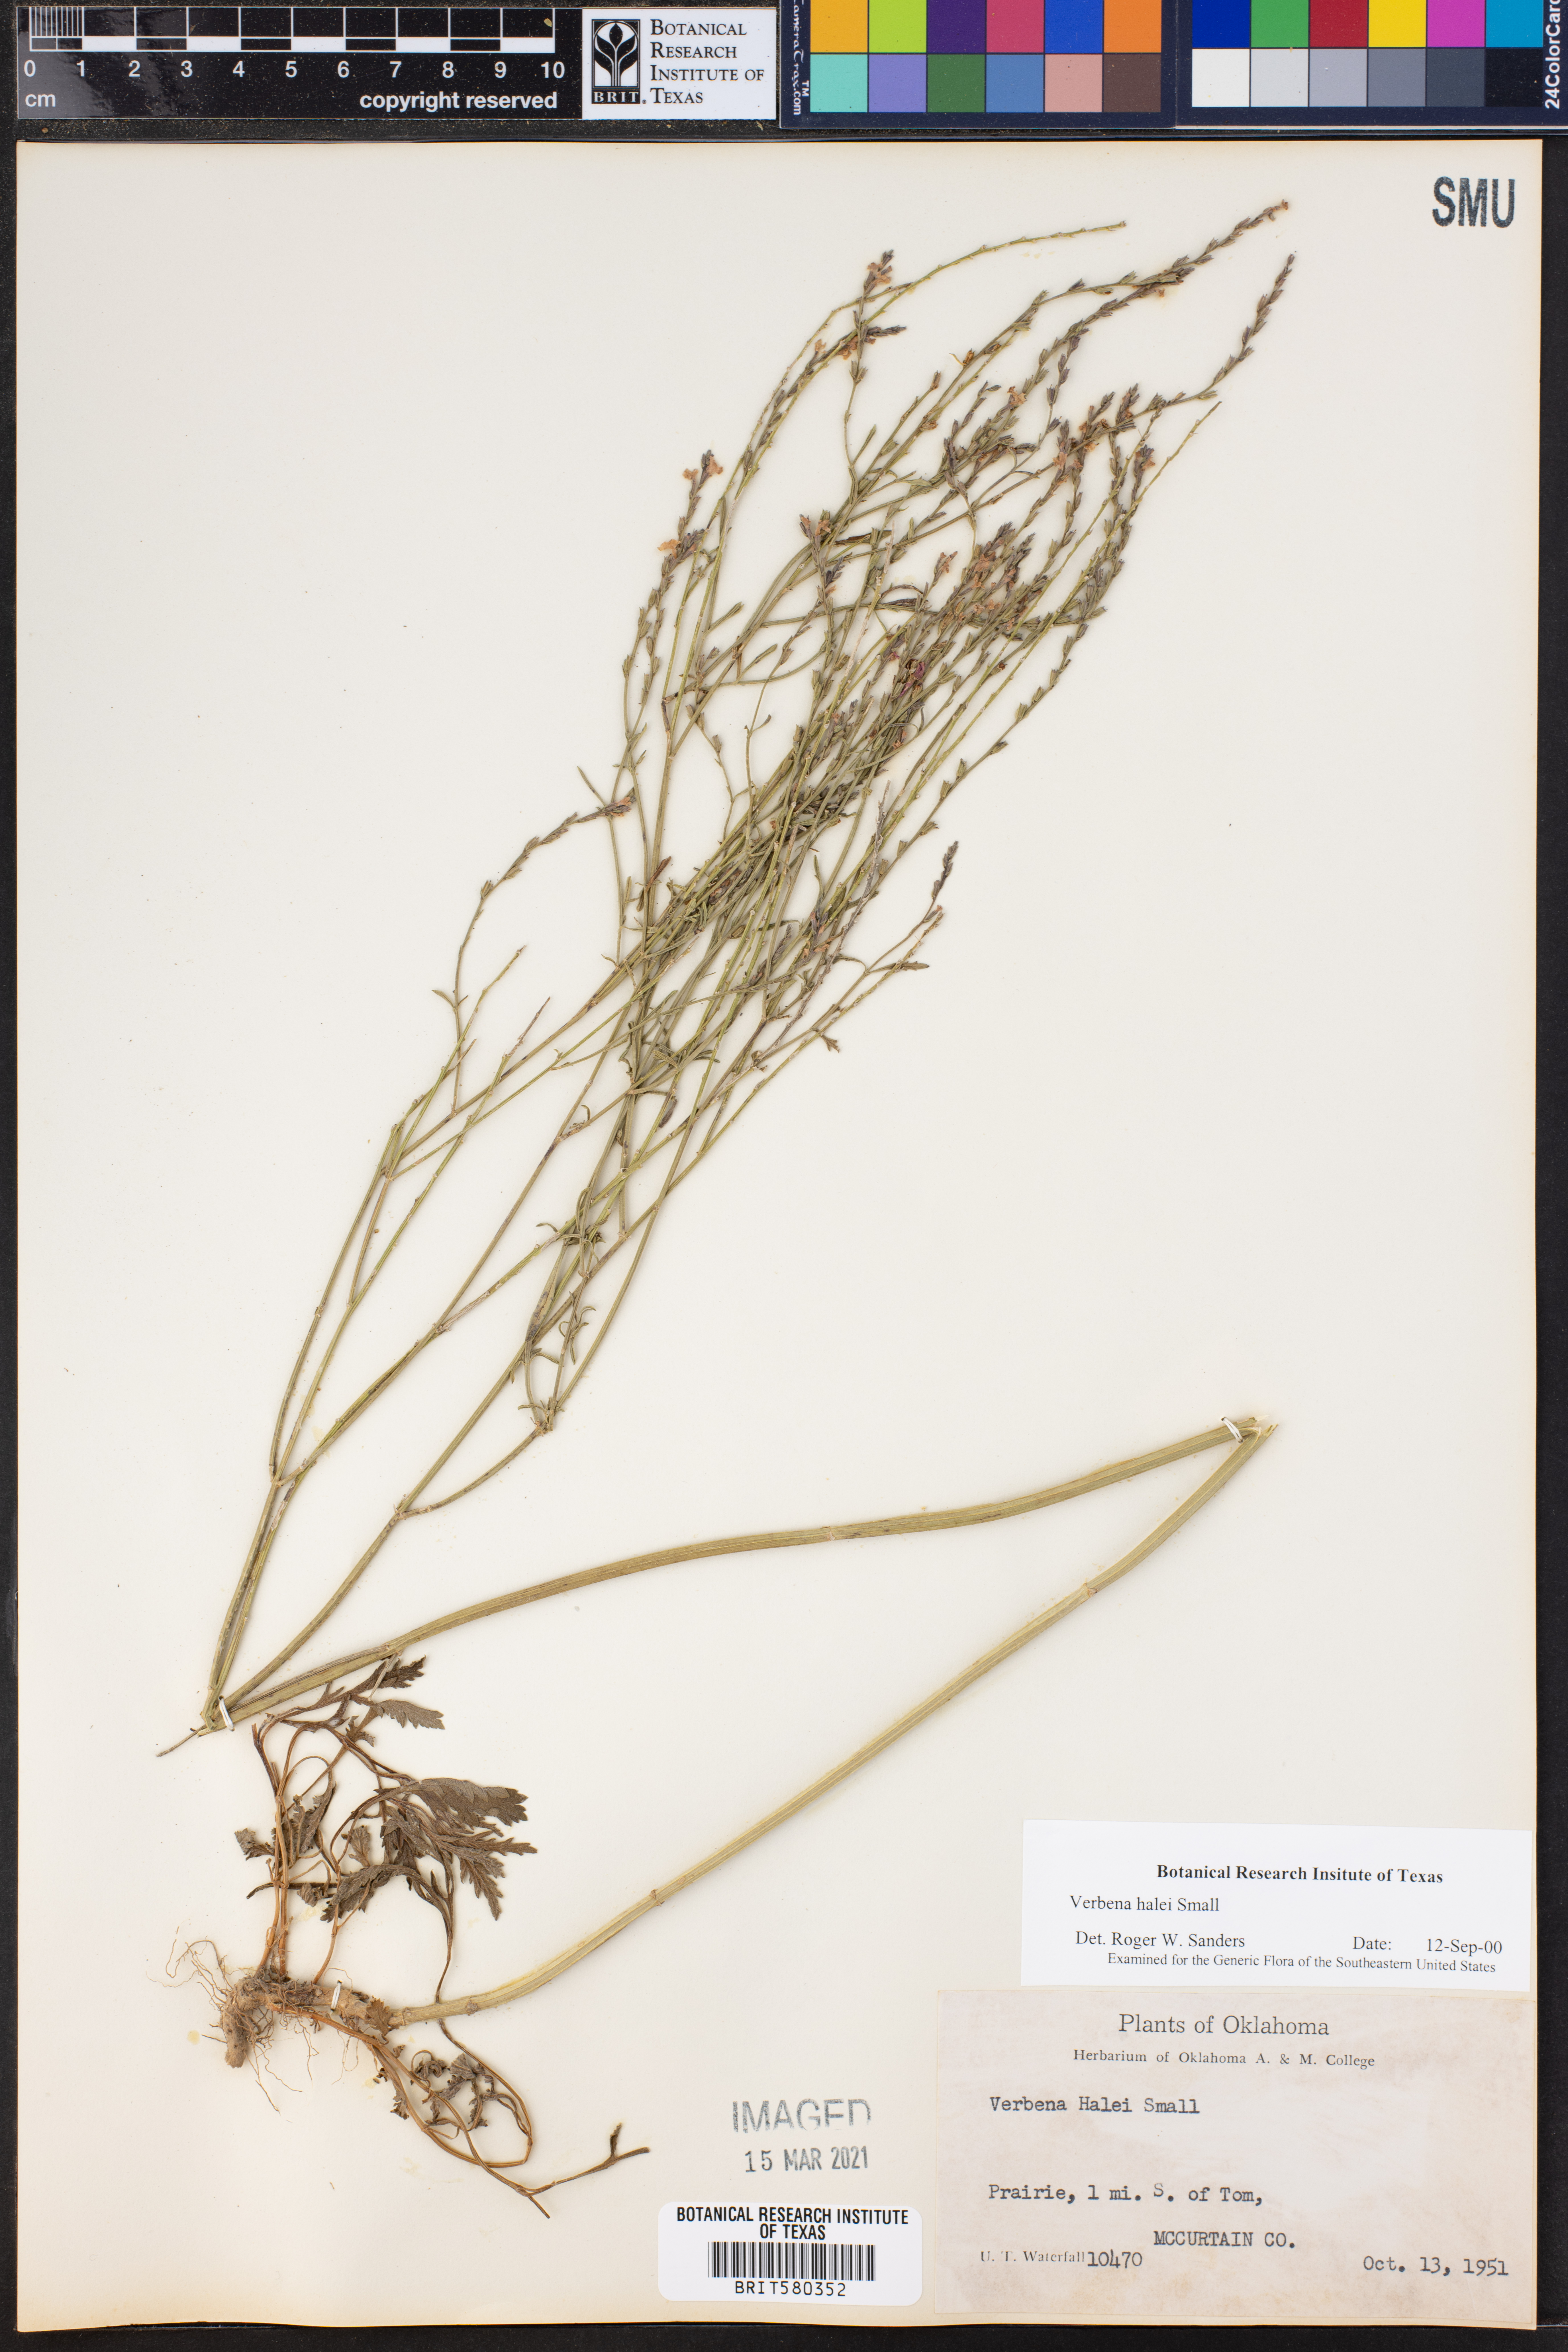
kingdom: Plantae
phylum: Tracheophyta
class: Magnoliopsida
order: Lamiales
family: Verbenaceae
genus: Verbena
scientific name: Verbena halei
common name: Texas vervain
